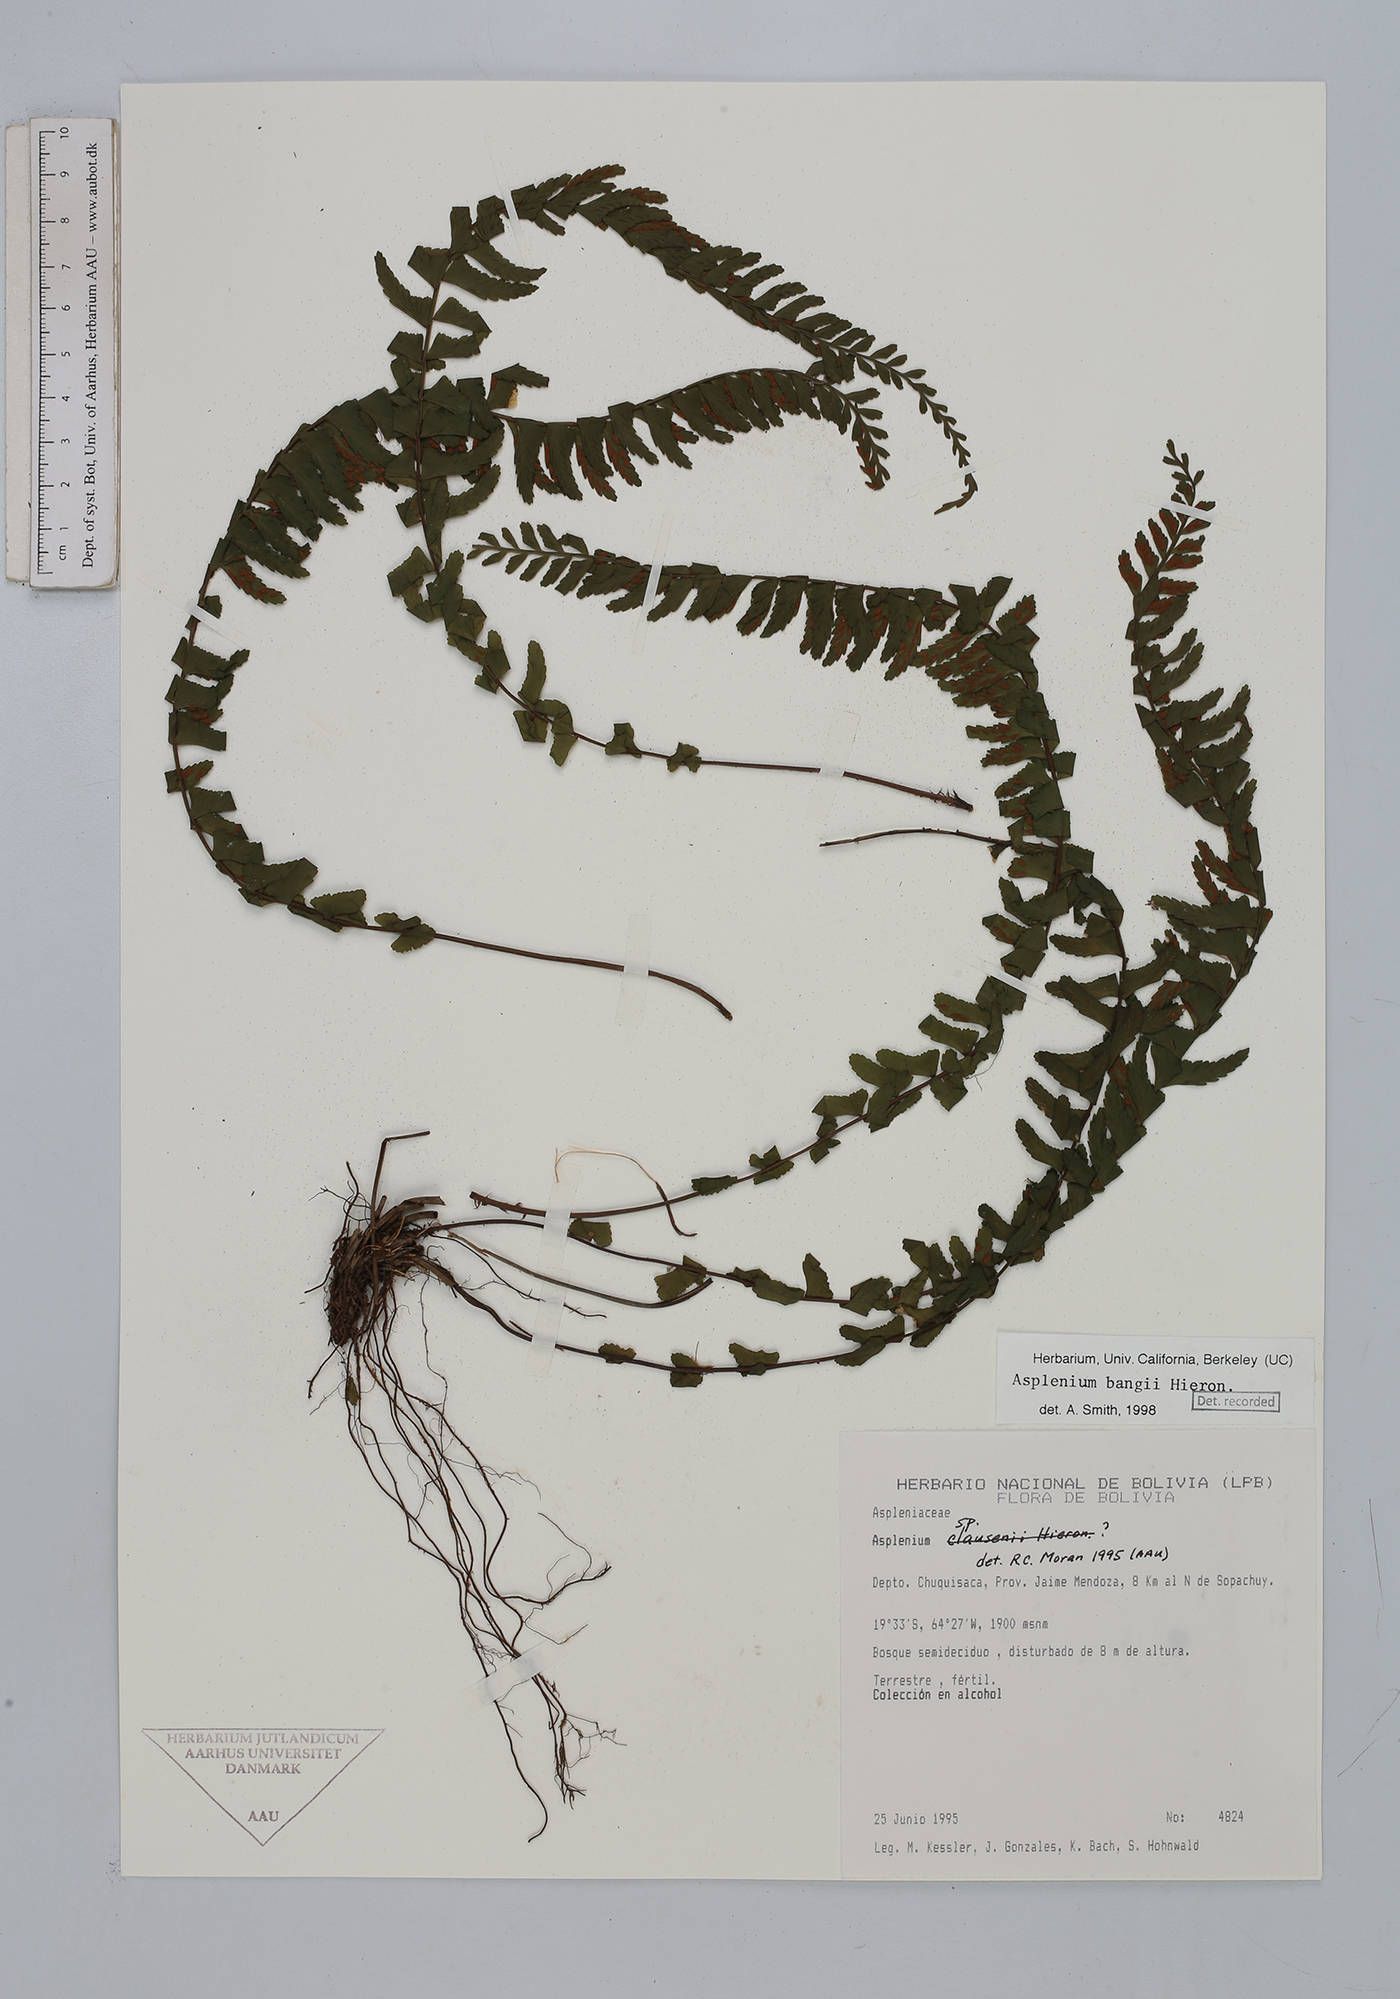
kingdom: Plantae
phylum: Tracheophyta
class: Polypodiopsida
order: Polypodiales
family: Aspleniaceae
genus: Asplenium
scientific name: Asplenium bangii
